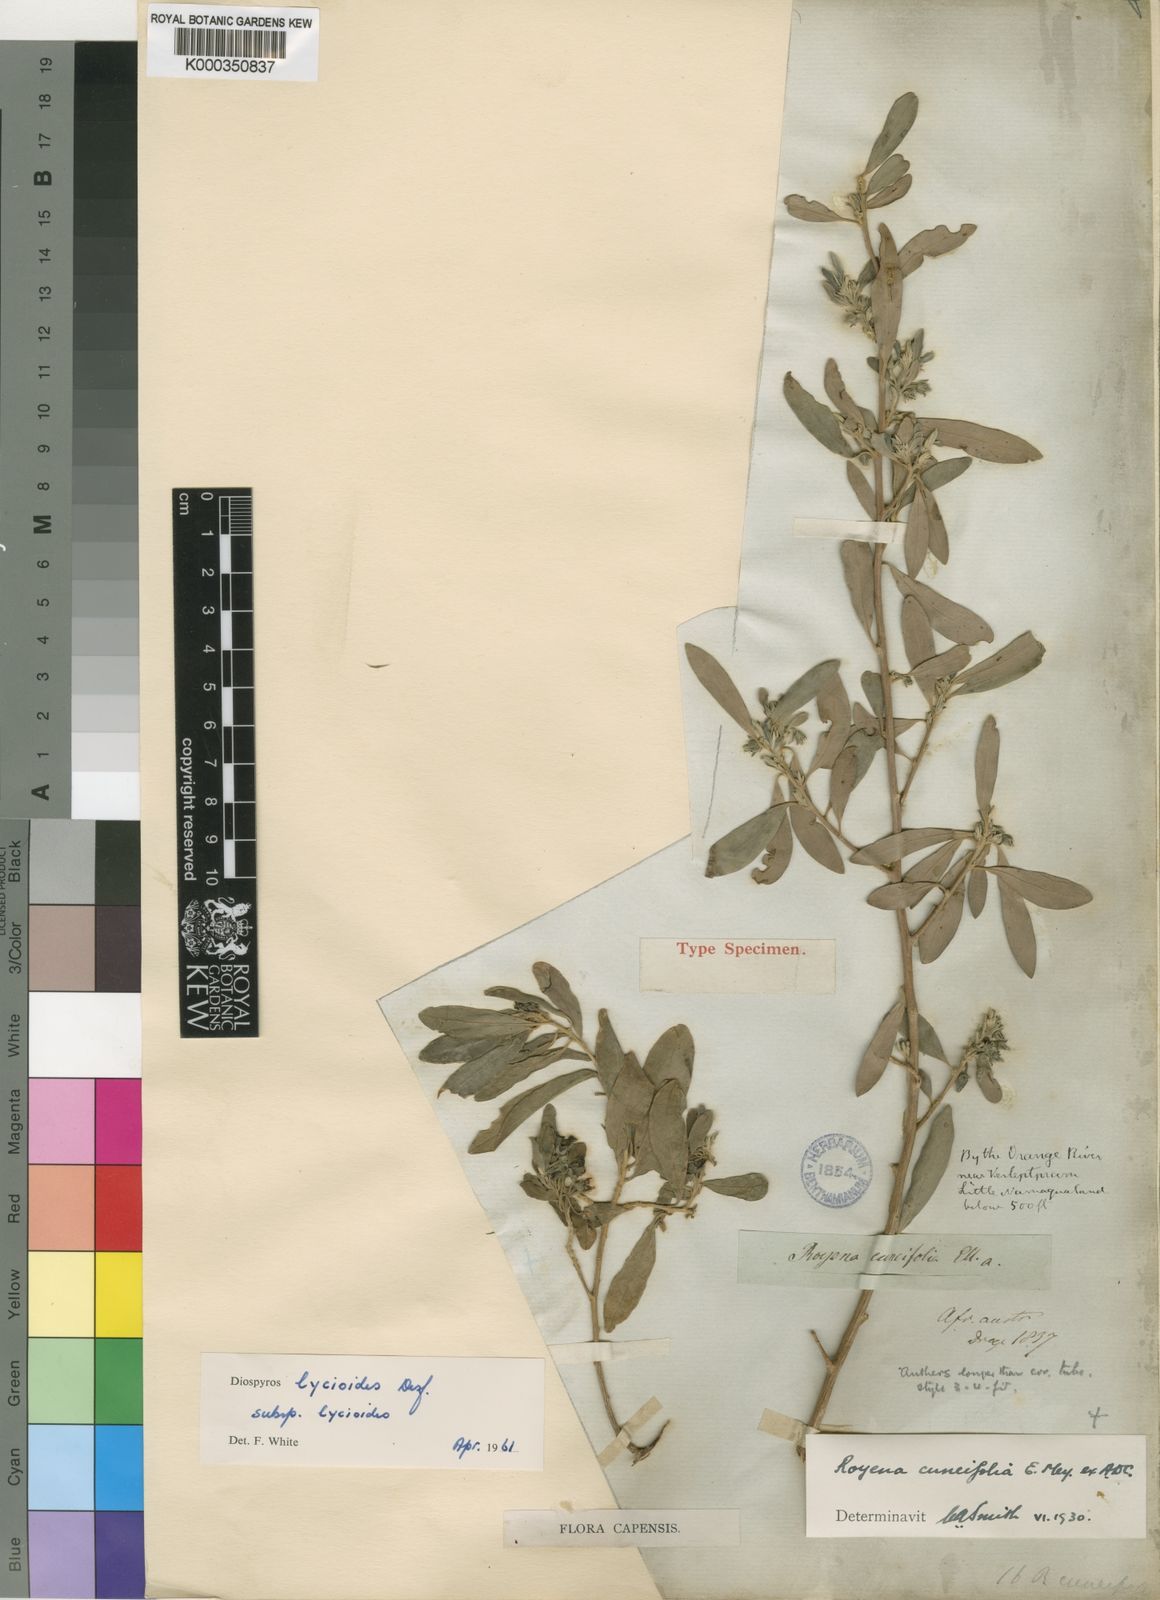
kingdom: Plantae
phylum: Tracheophyta
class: Magnoliopsida
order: Ericales
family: Ebenaceae
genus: Diospyros
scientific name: Diospyros lycioides
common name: Red star apple
